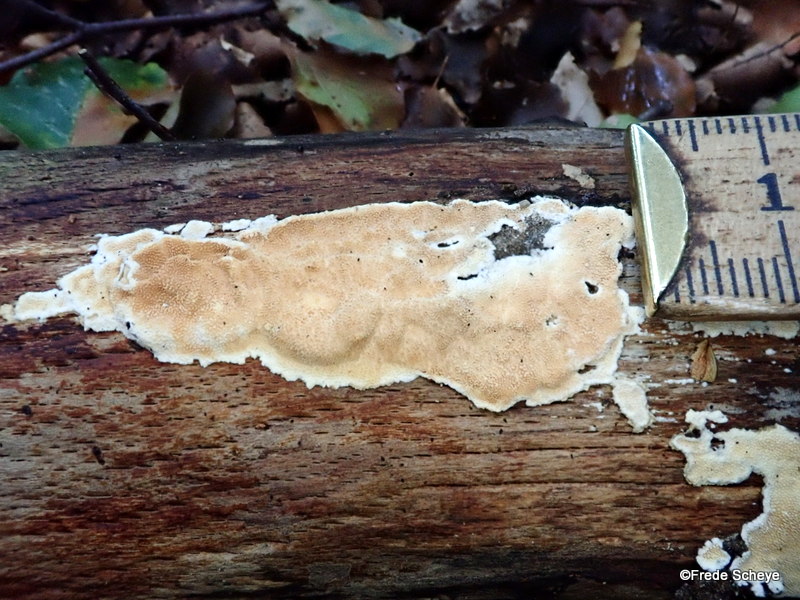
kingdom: Fungi
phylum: Basidiomycota
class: Agaricomycetes
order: Polyporales
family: Steccherinaceae
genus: Steccherinum
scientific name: Steccherinum ochraceum
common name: almindelig skønpig
